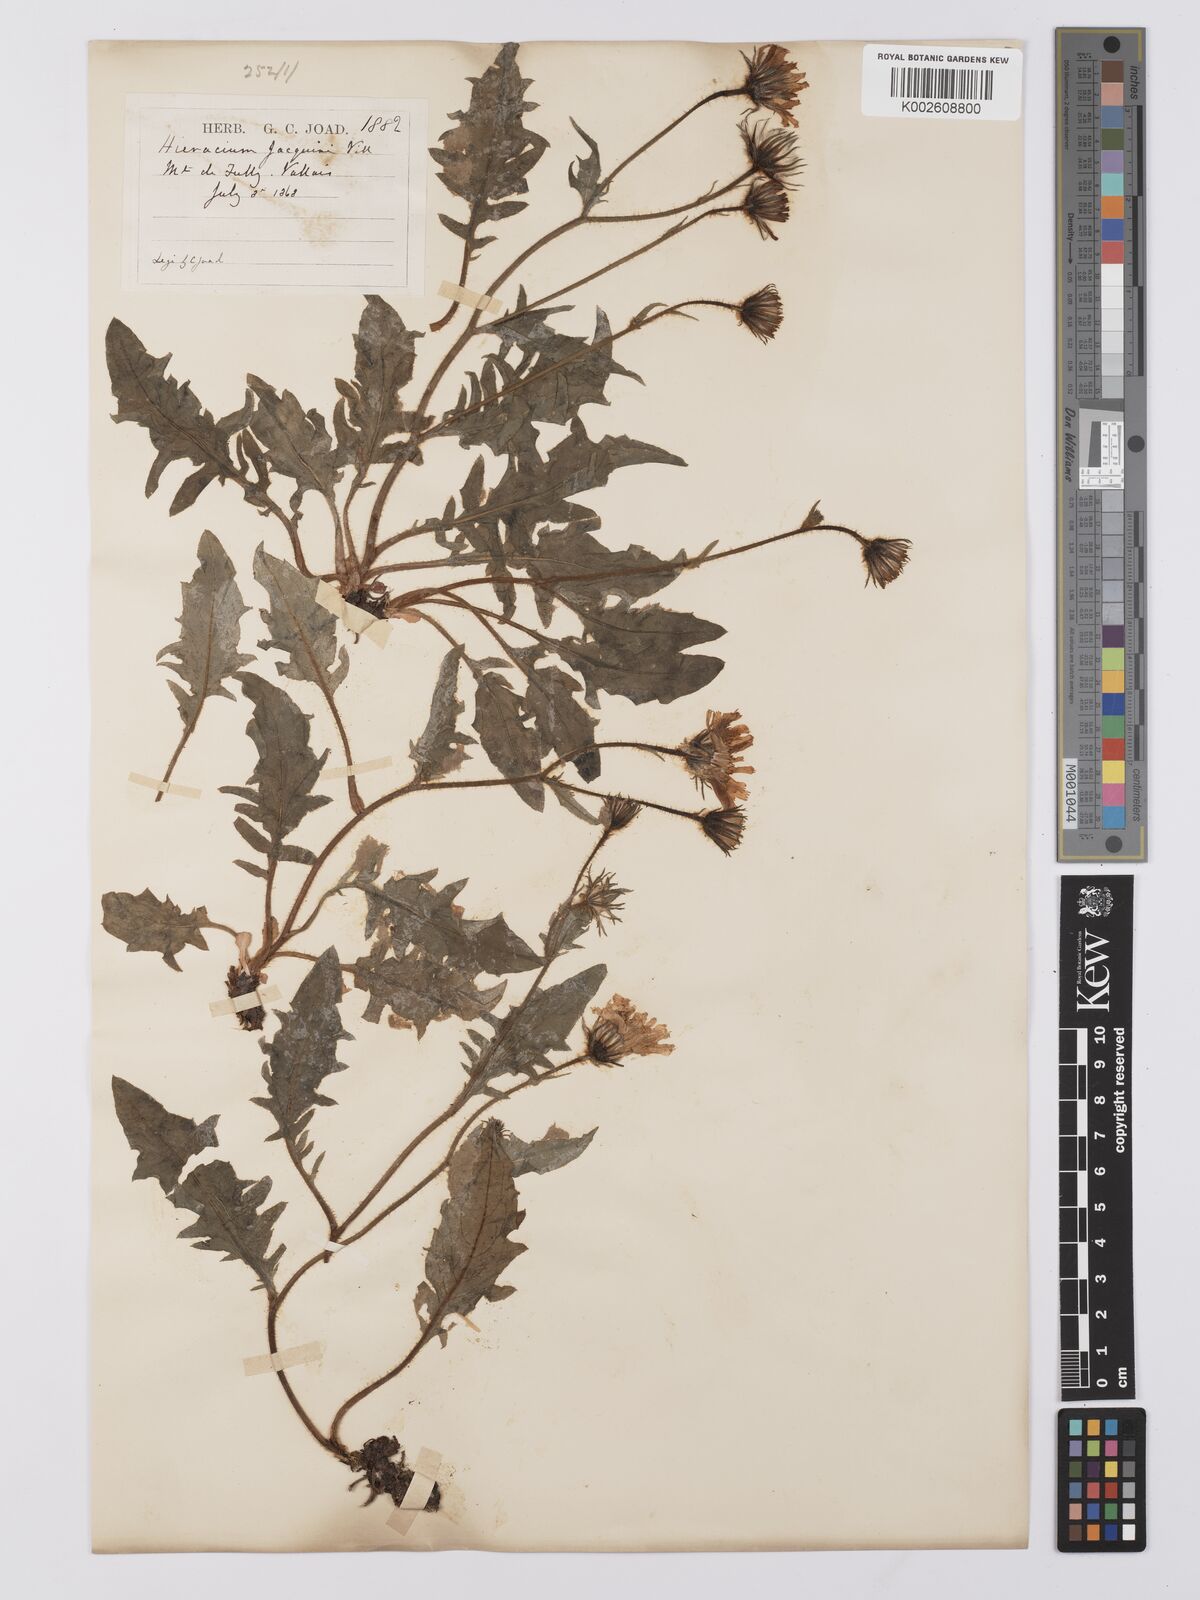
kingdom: Plantae
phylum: Tracheophyta
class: Magnoliopsida
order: Asterales
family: Asteraceae
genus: Hieracium
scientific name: Hieracium humile
